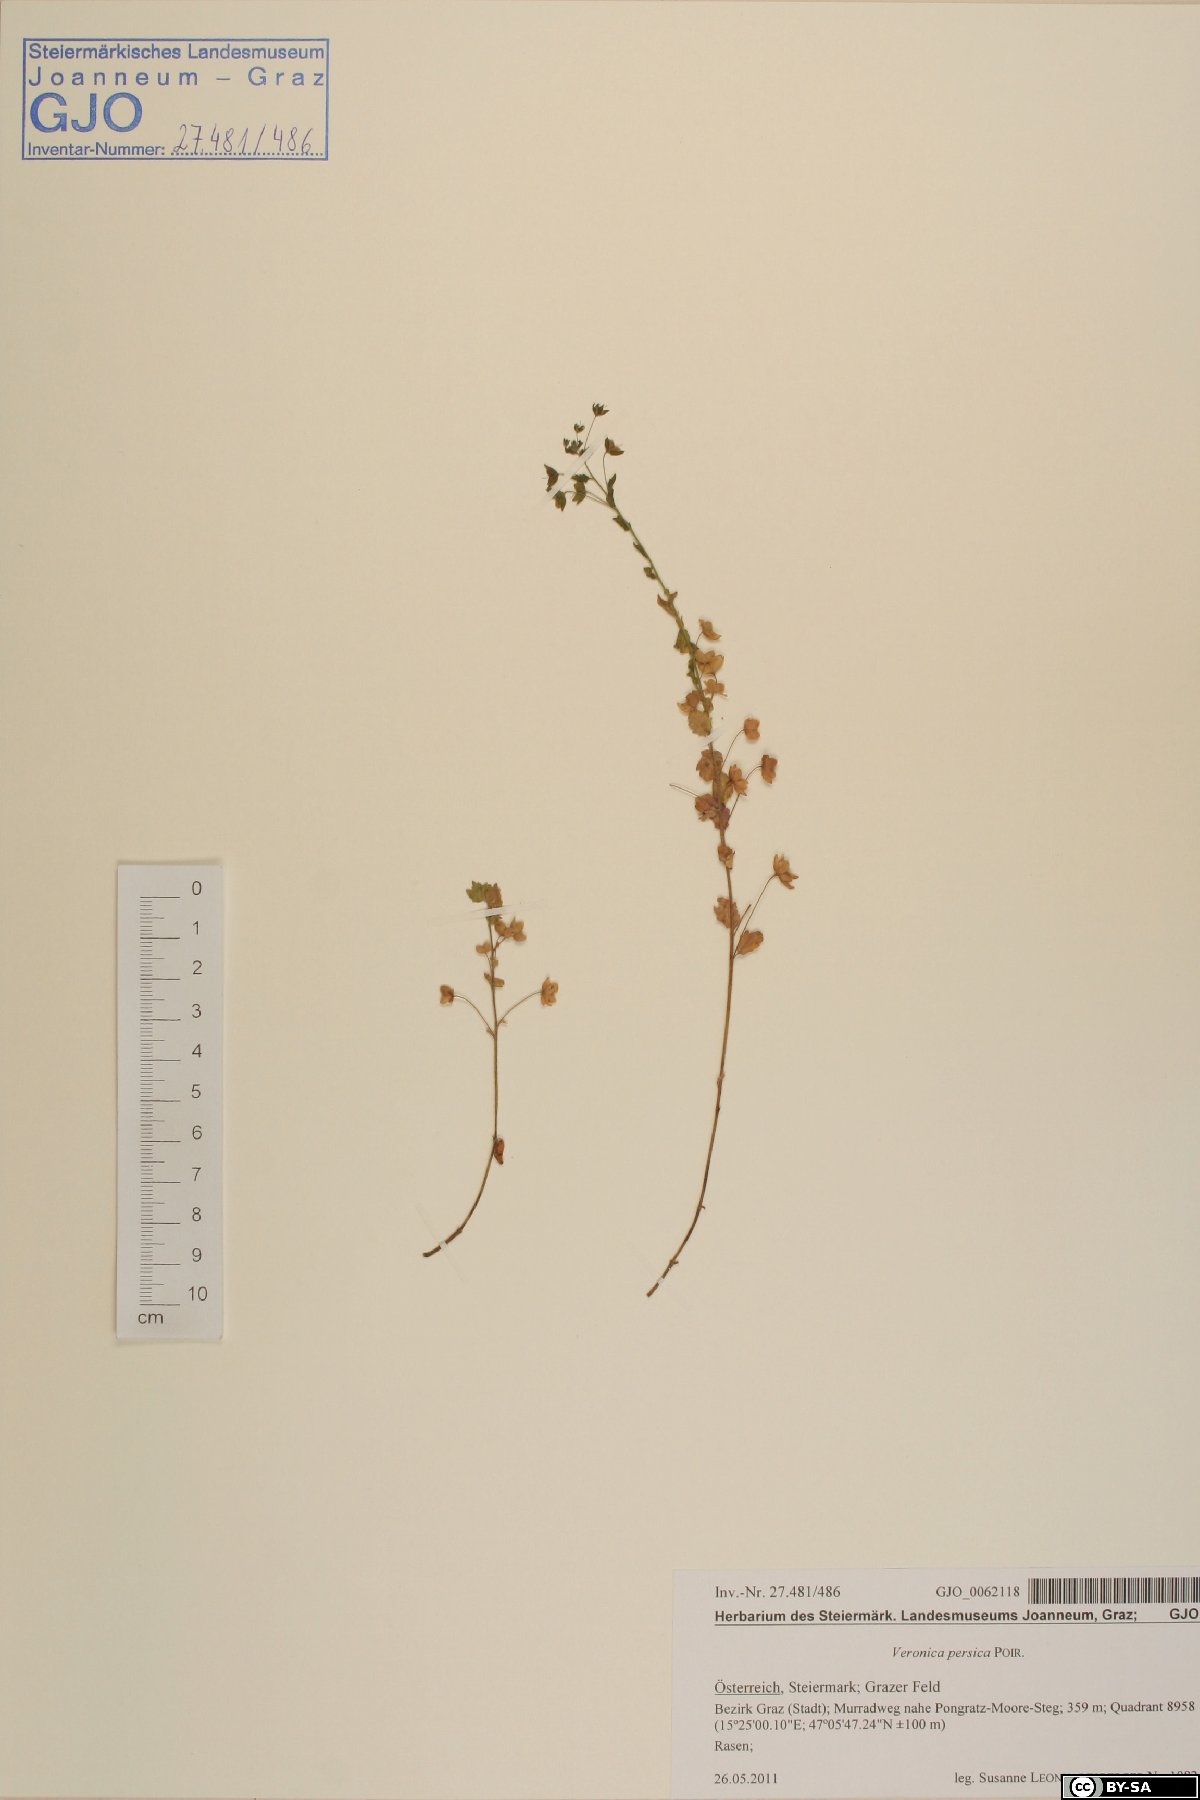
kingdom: Plantae
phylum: Tracheophyta
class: Magnoliopsida
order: Lamiales
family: Plantaginaceae
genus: Veronica
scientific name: Veronica persica
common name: Common field-speedwell
